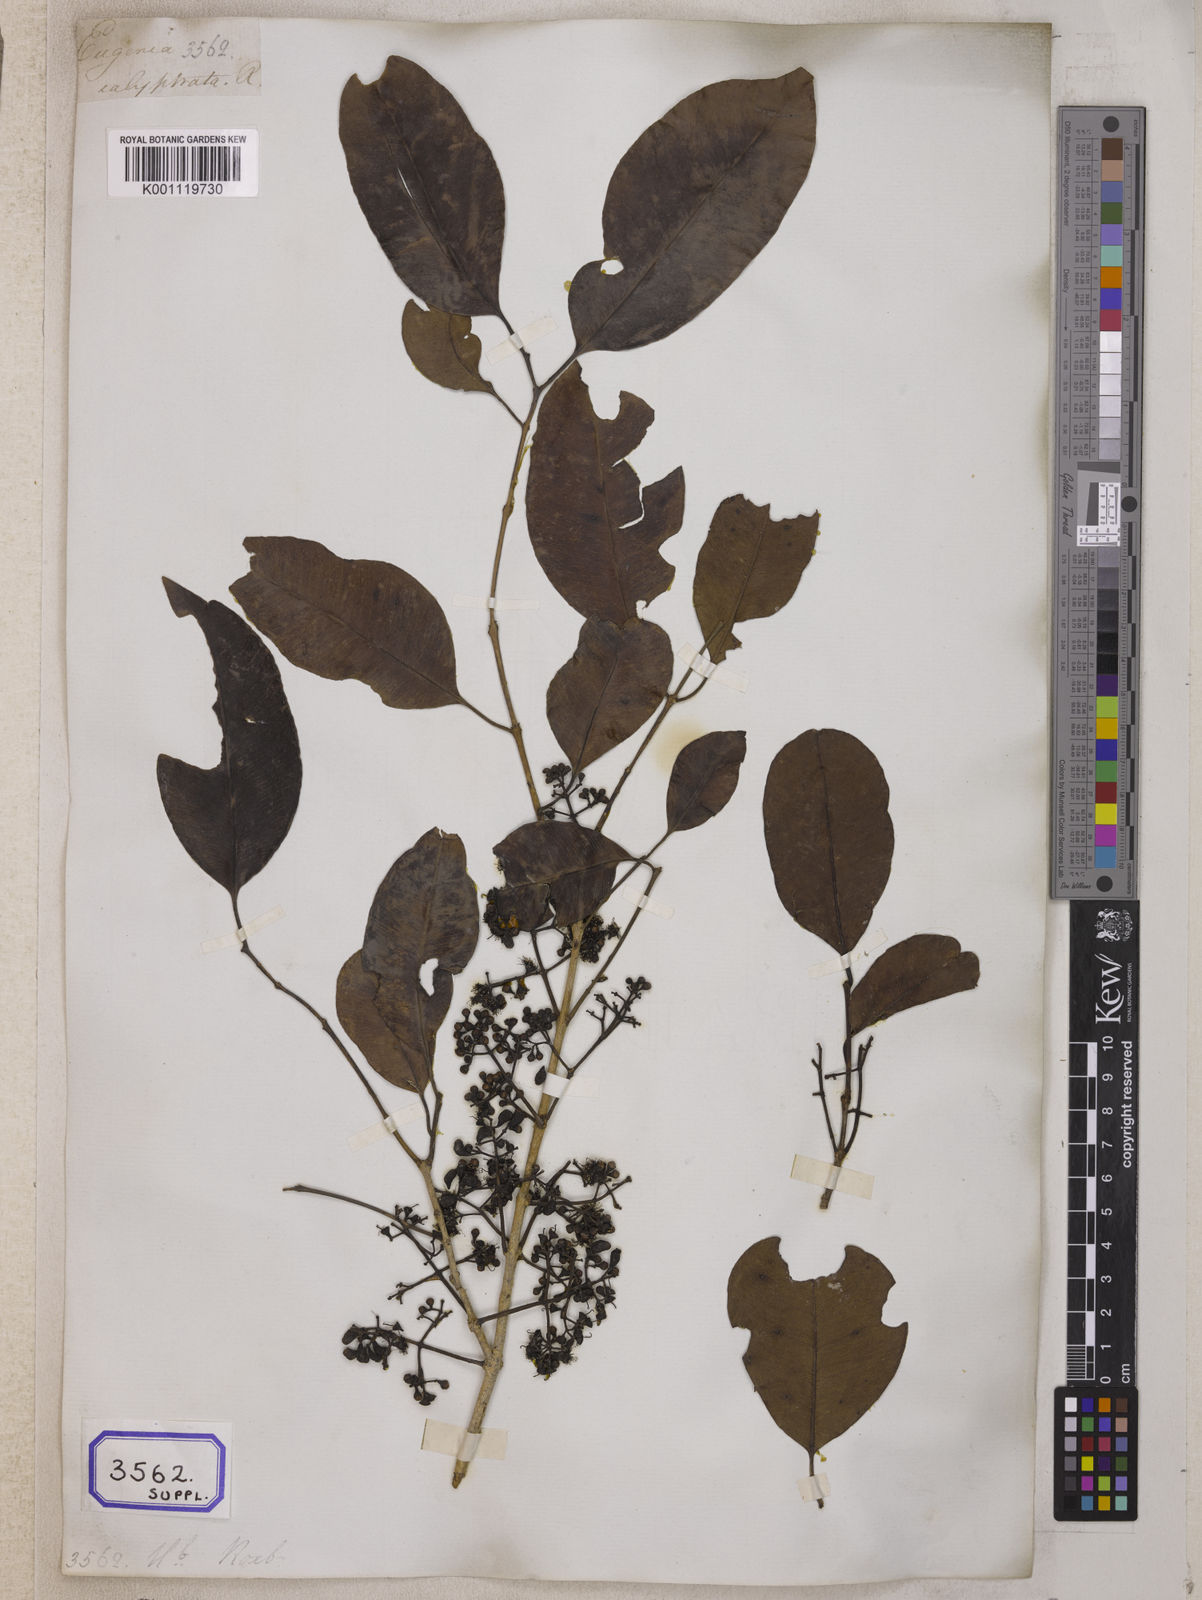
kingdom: Plantae
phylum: Tracheophyta
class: Magnoliopsida
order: Myrtales
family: Myrtaceae
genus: Syzygium
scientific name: Syzygium cumini
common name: Java plum
